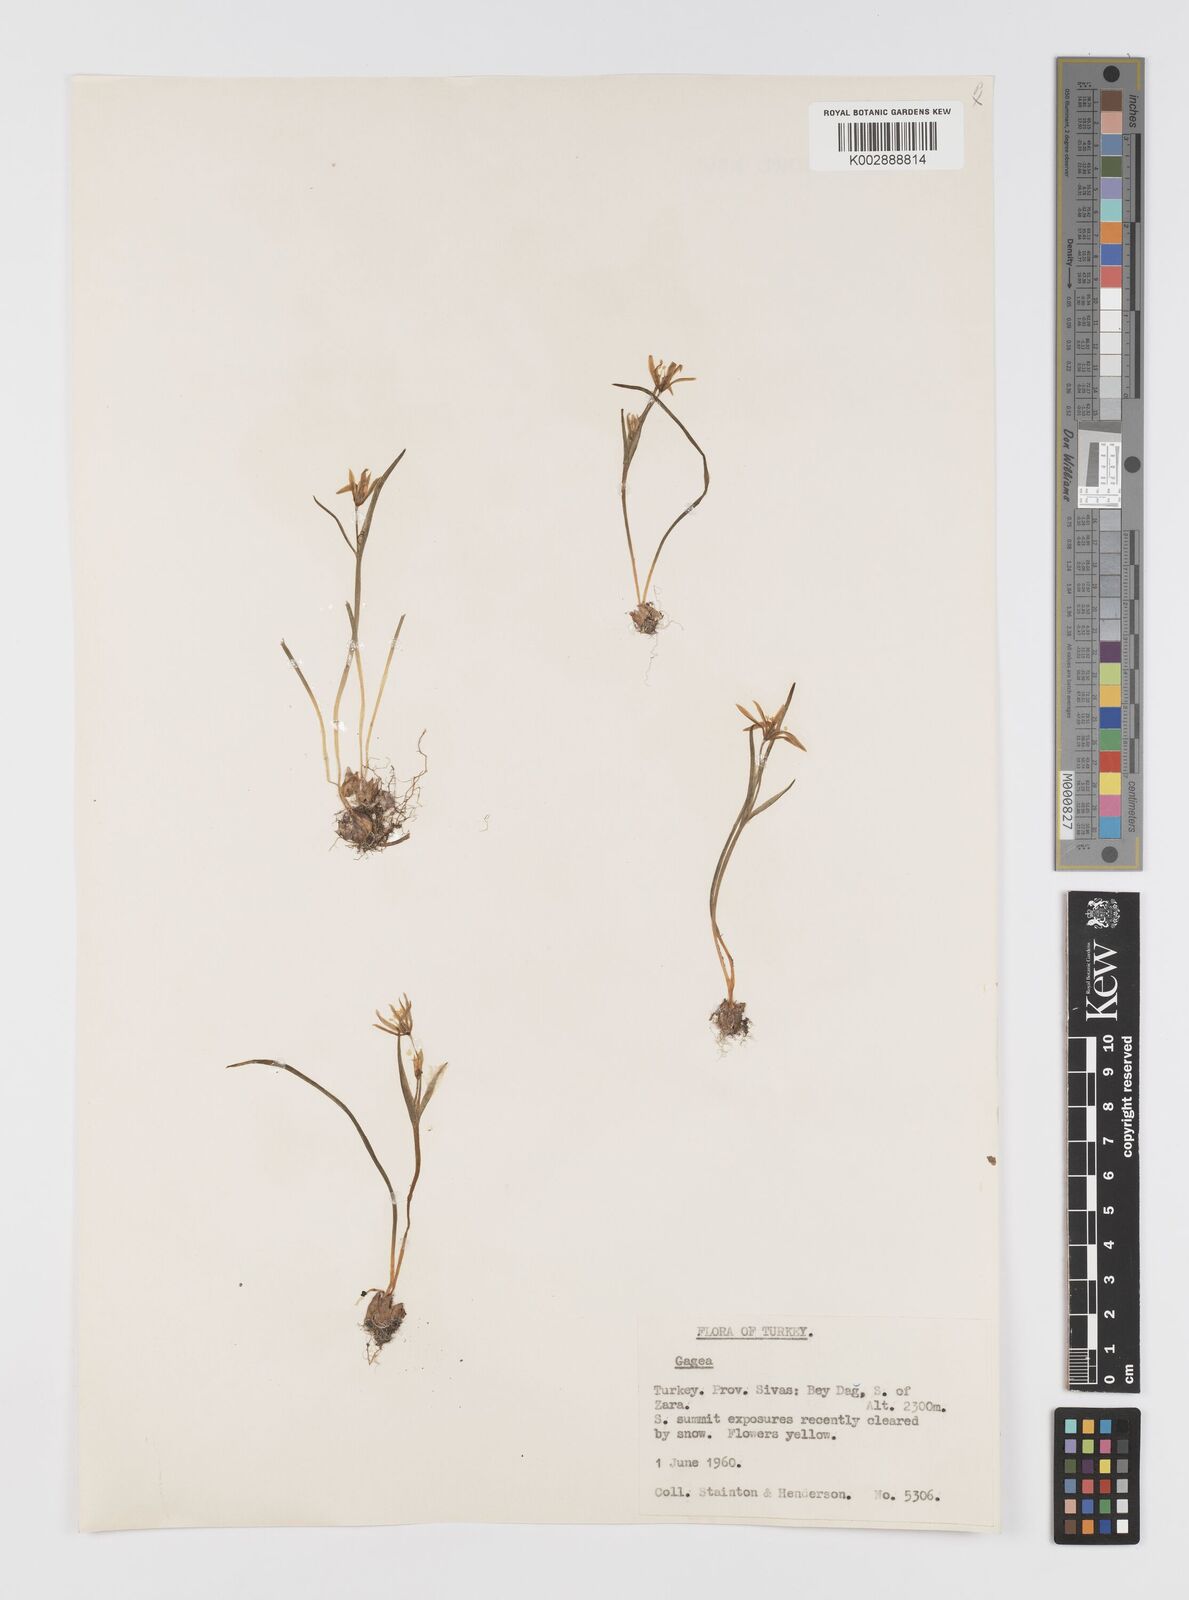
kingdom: Plantae
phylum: Tracheophyta
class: Liliopsida
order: Liliales
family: Liliaceae
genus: Gagea
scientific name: Gagea
